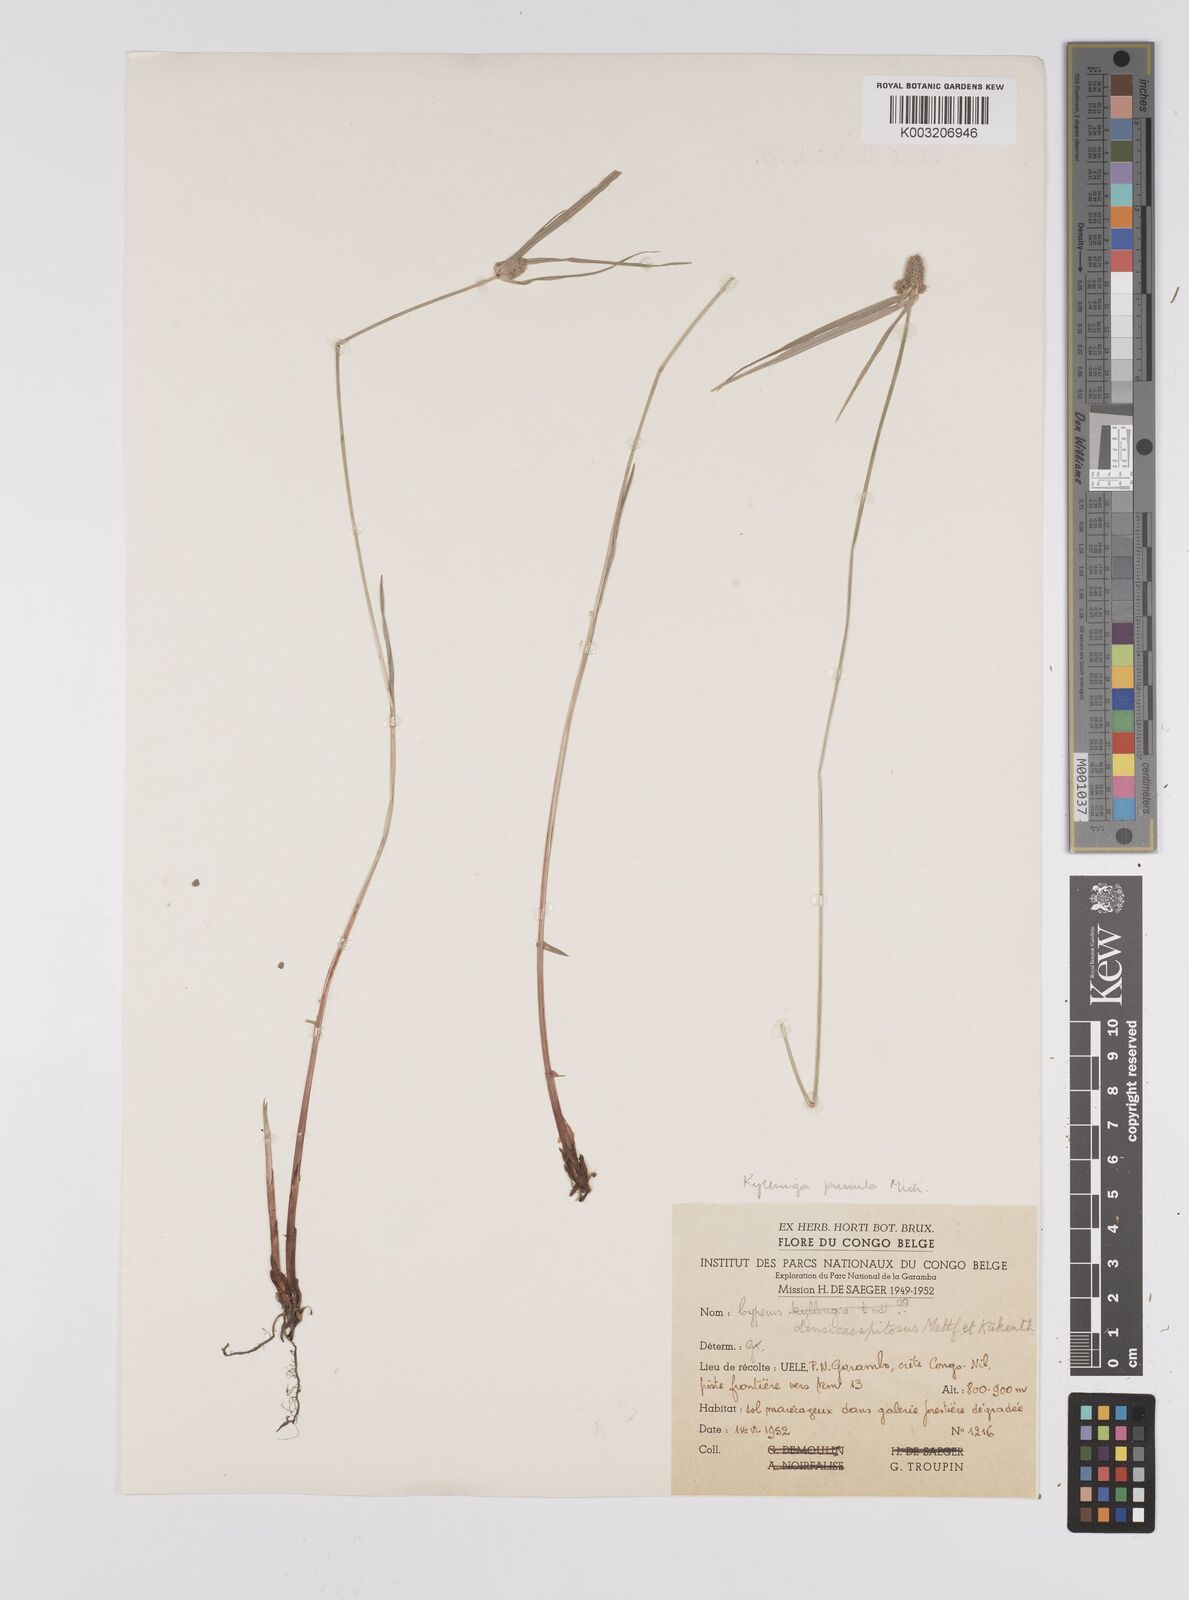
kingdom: Plantae
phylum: Tracheophyta
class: Liliopsida
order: Poales
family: Cyperaceae
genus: Cyperus
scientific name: Cyperus hortensis
